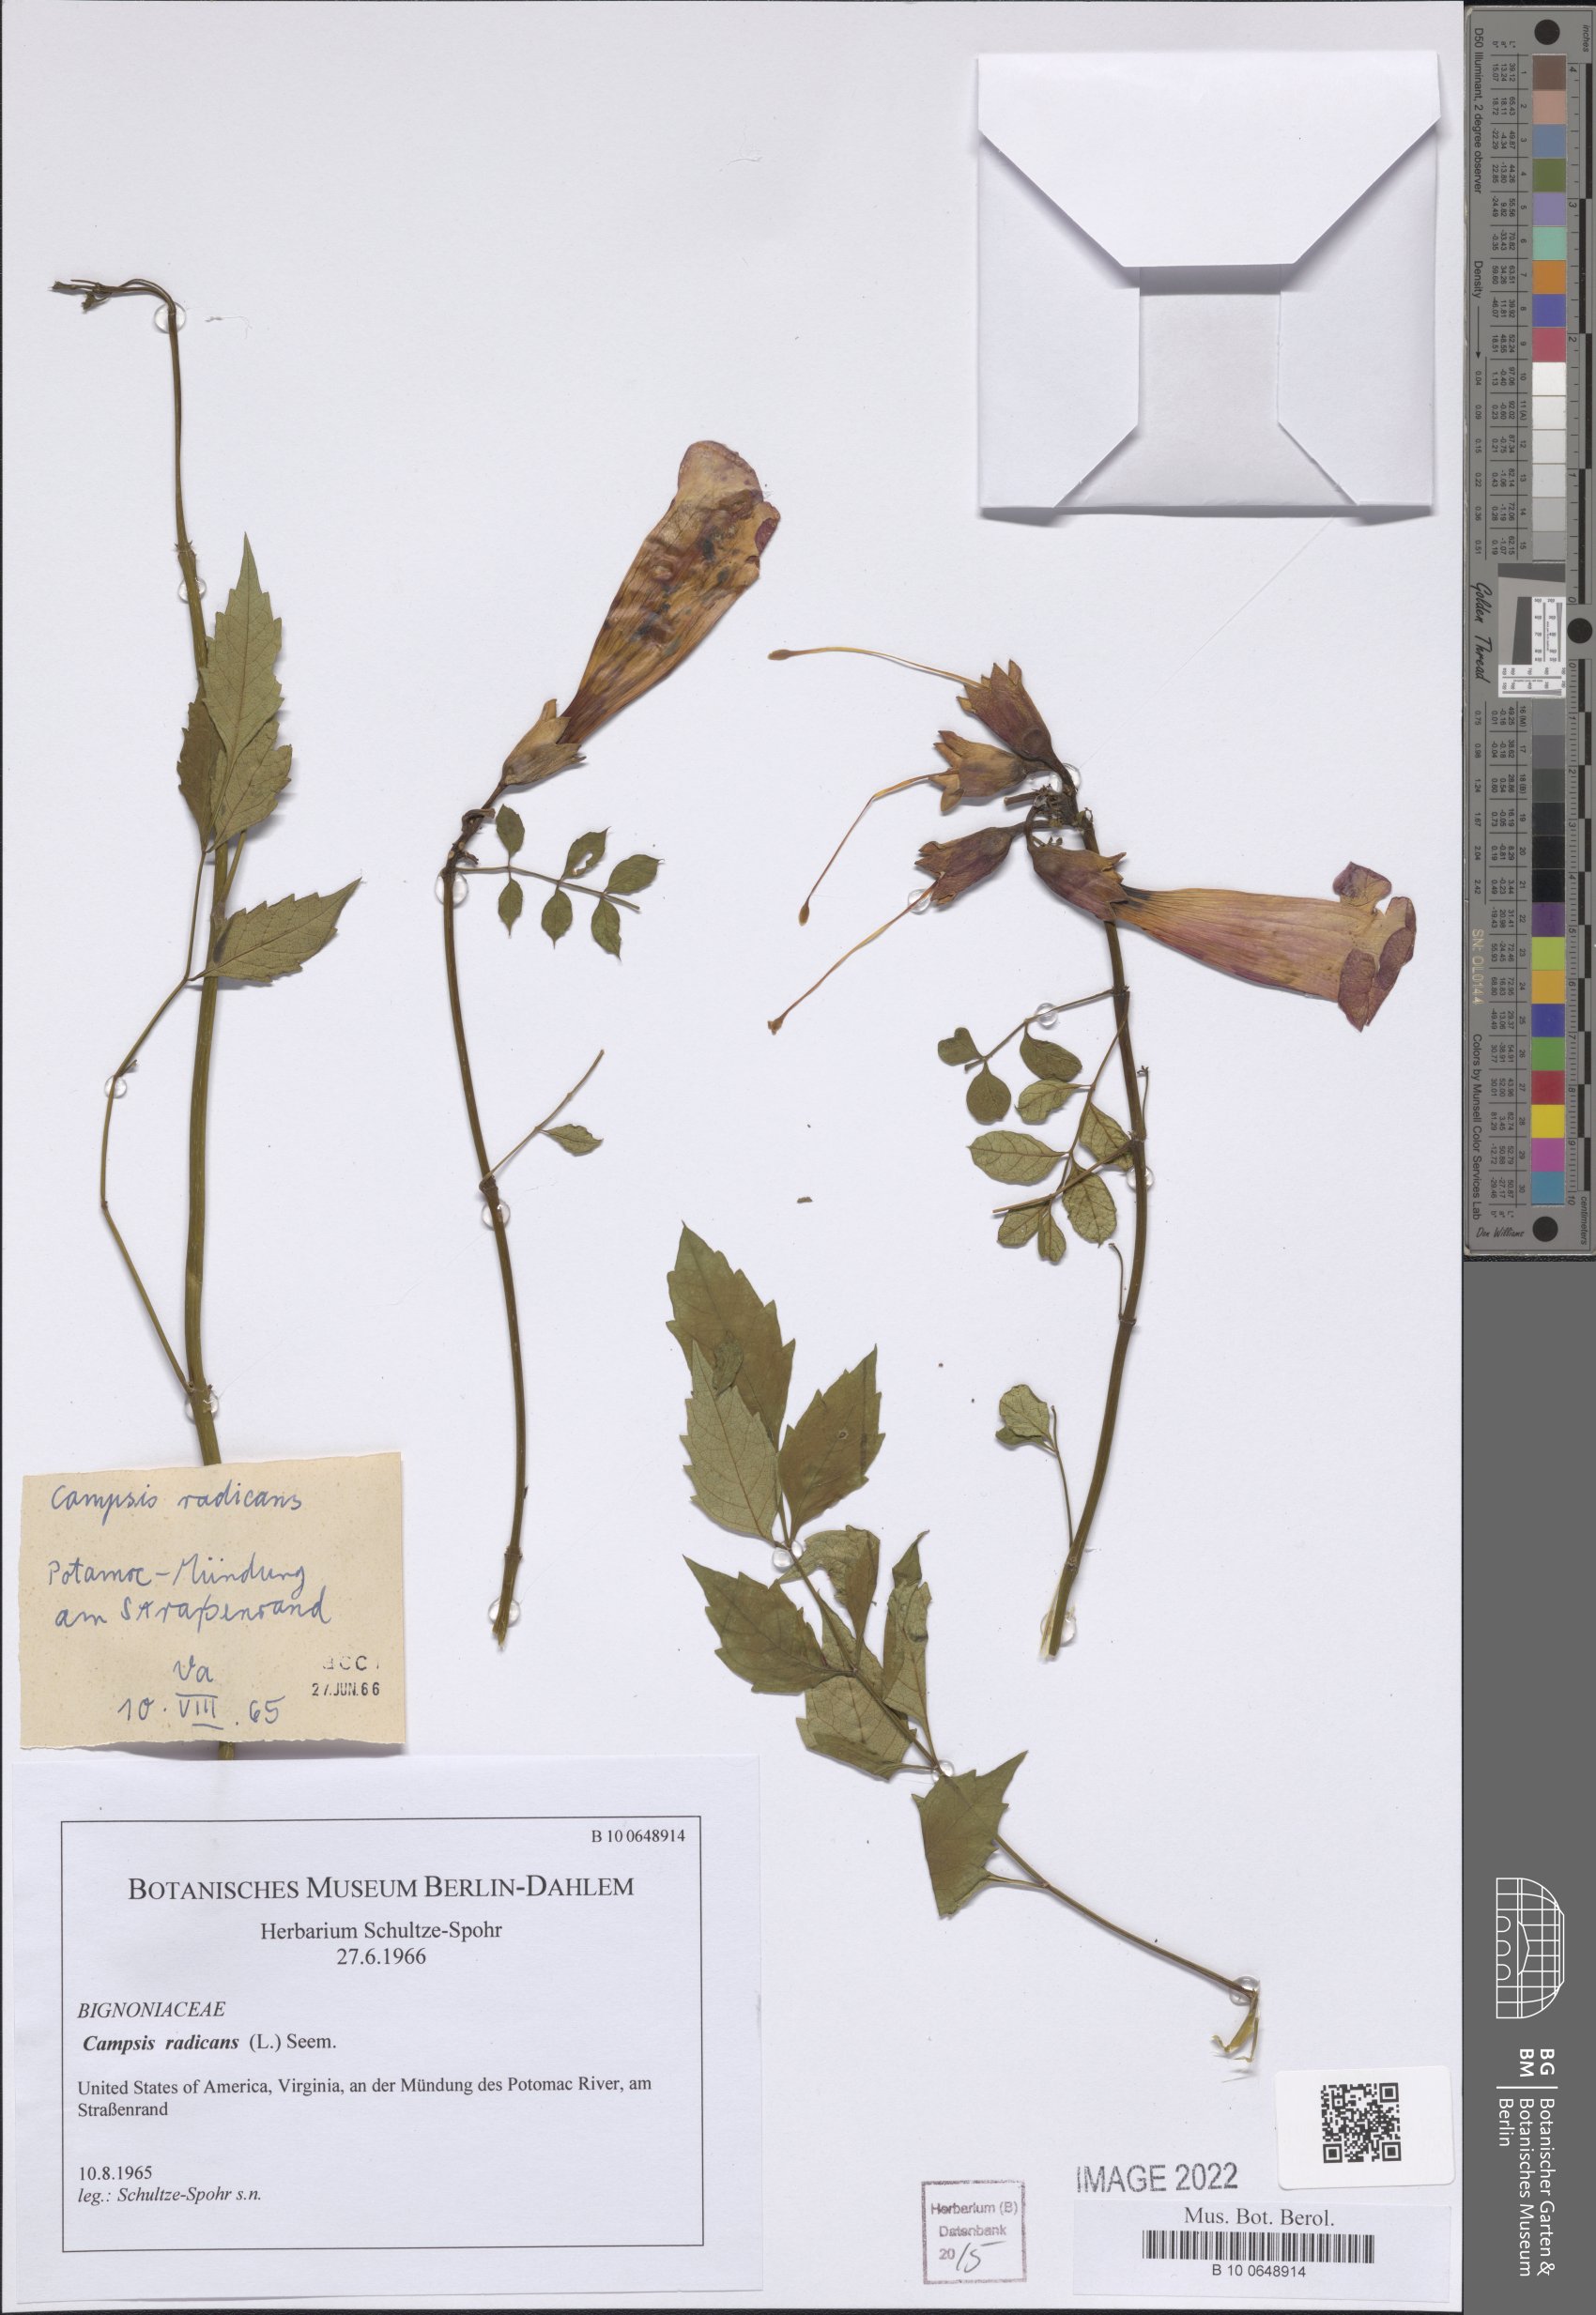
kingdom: Plantae
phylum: Tracheophyta
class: Magnoliopsida
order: Lamiales
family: Bignoniaceae
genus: Campsis
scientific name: Campsis radicans
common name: Trumpet-creeper
